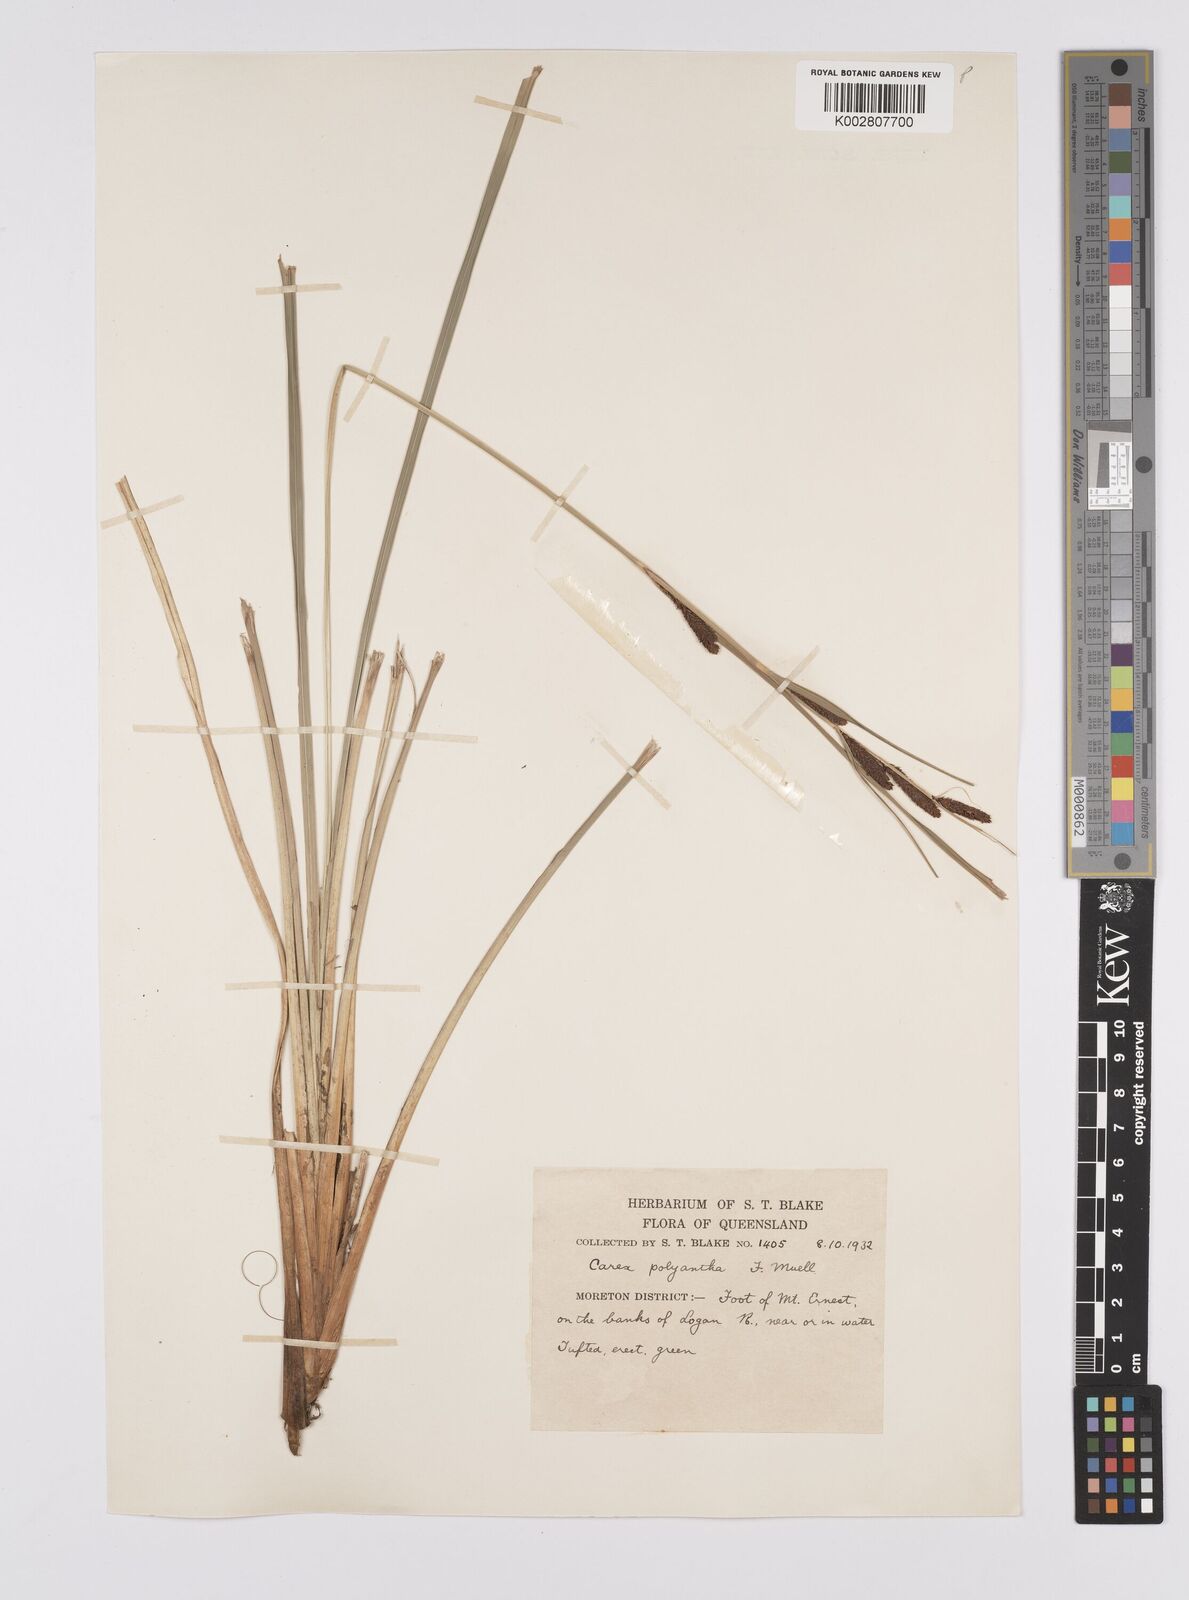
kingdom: Plantae
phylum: Tracheophyta
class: Liliopsida
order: Poales
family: Cyperaceae
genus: Carex
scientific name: Carex polyantha
